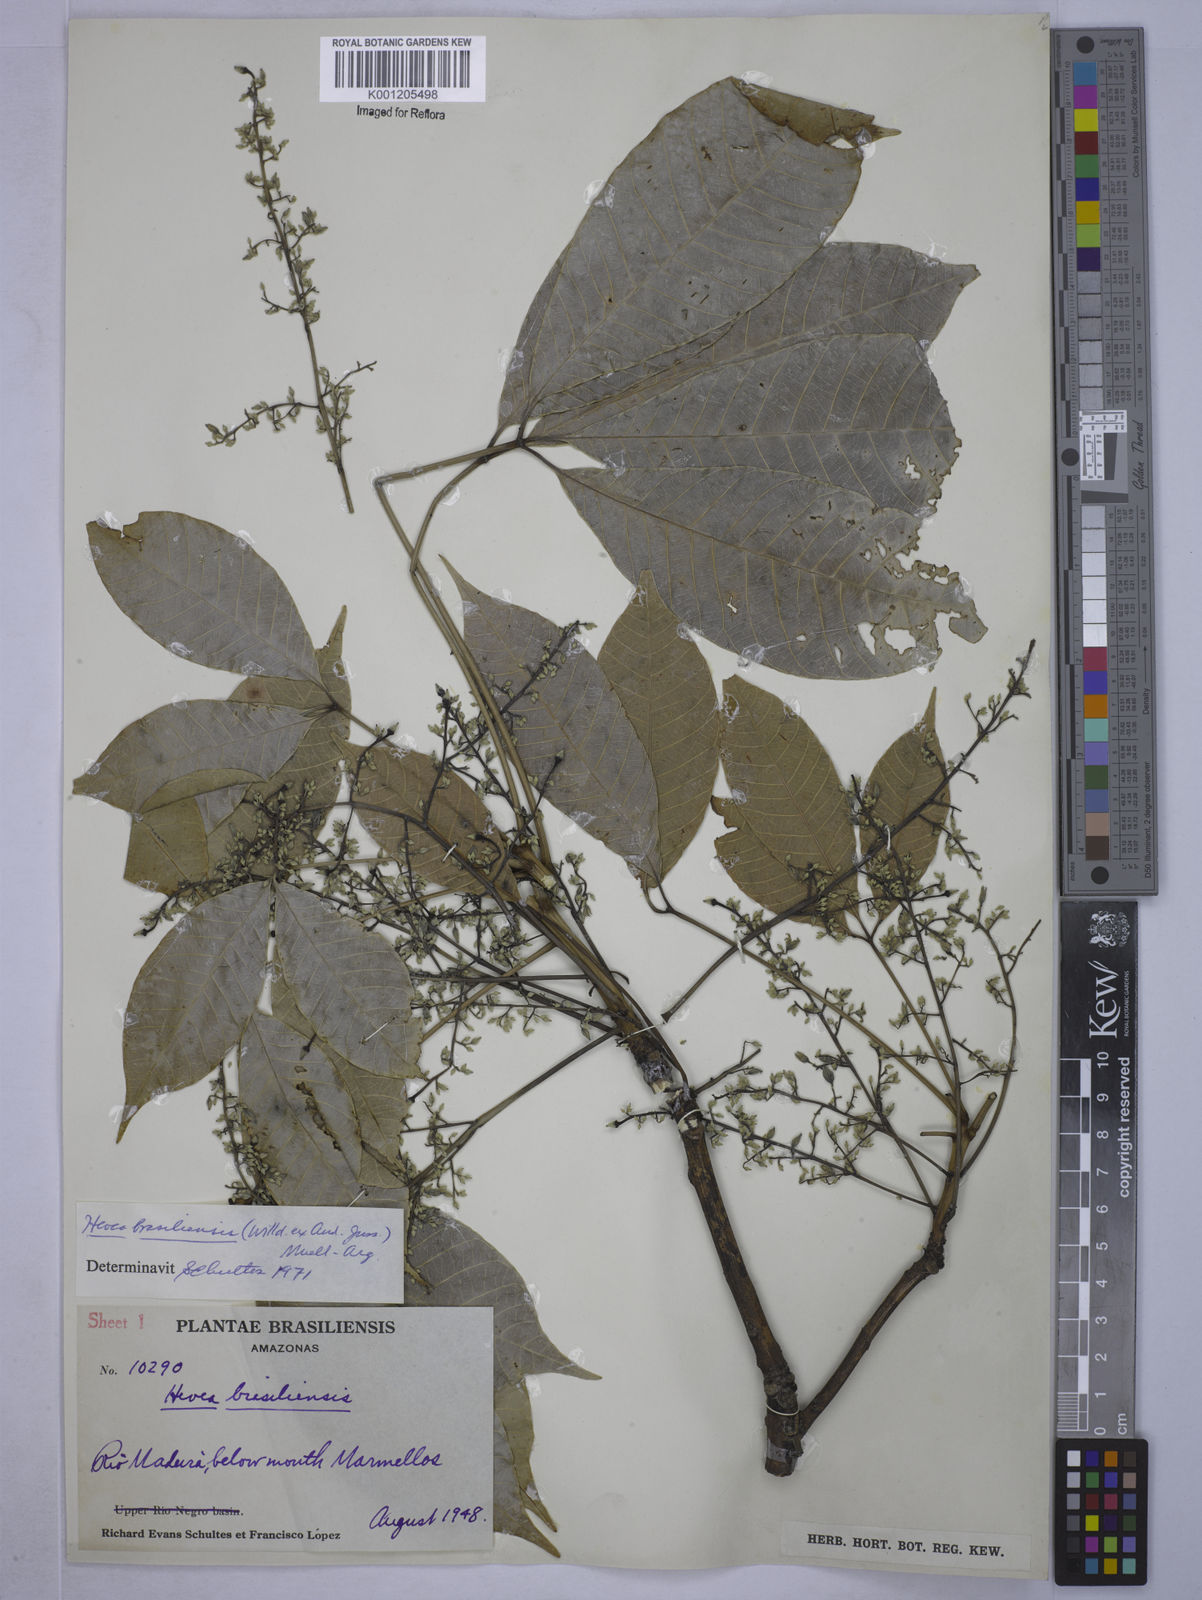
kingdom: Plantae
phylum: Tracheophyta
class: Magnoliopsida
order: Malpighiales
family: Euphorbiaceae
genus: Hevea
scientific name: Hevea
